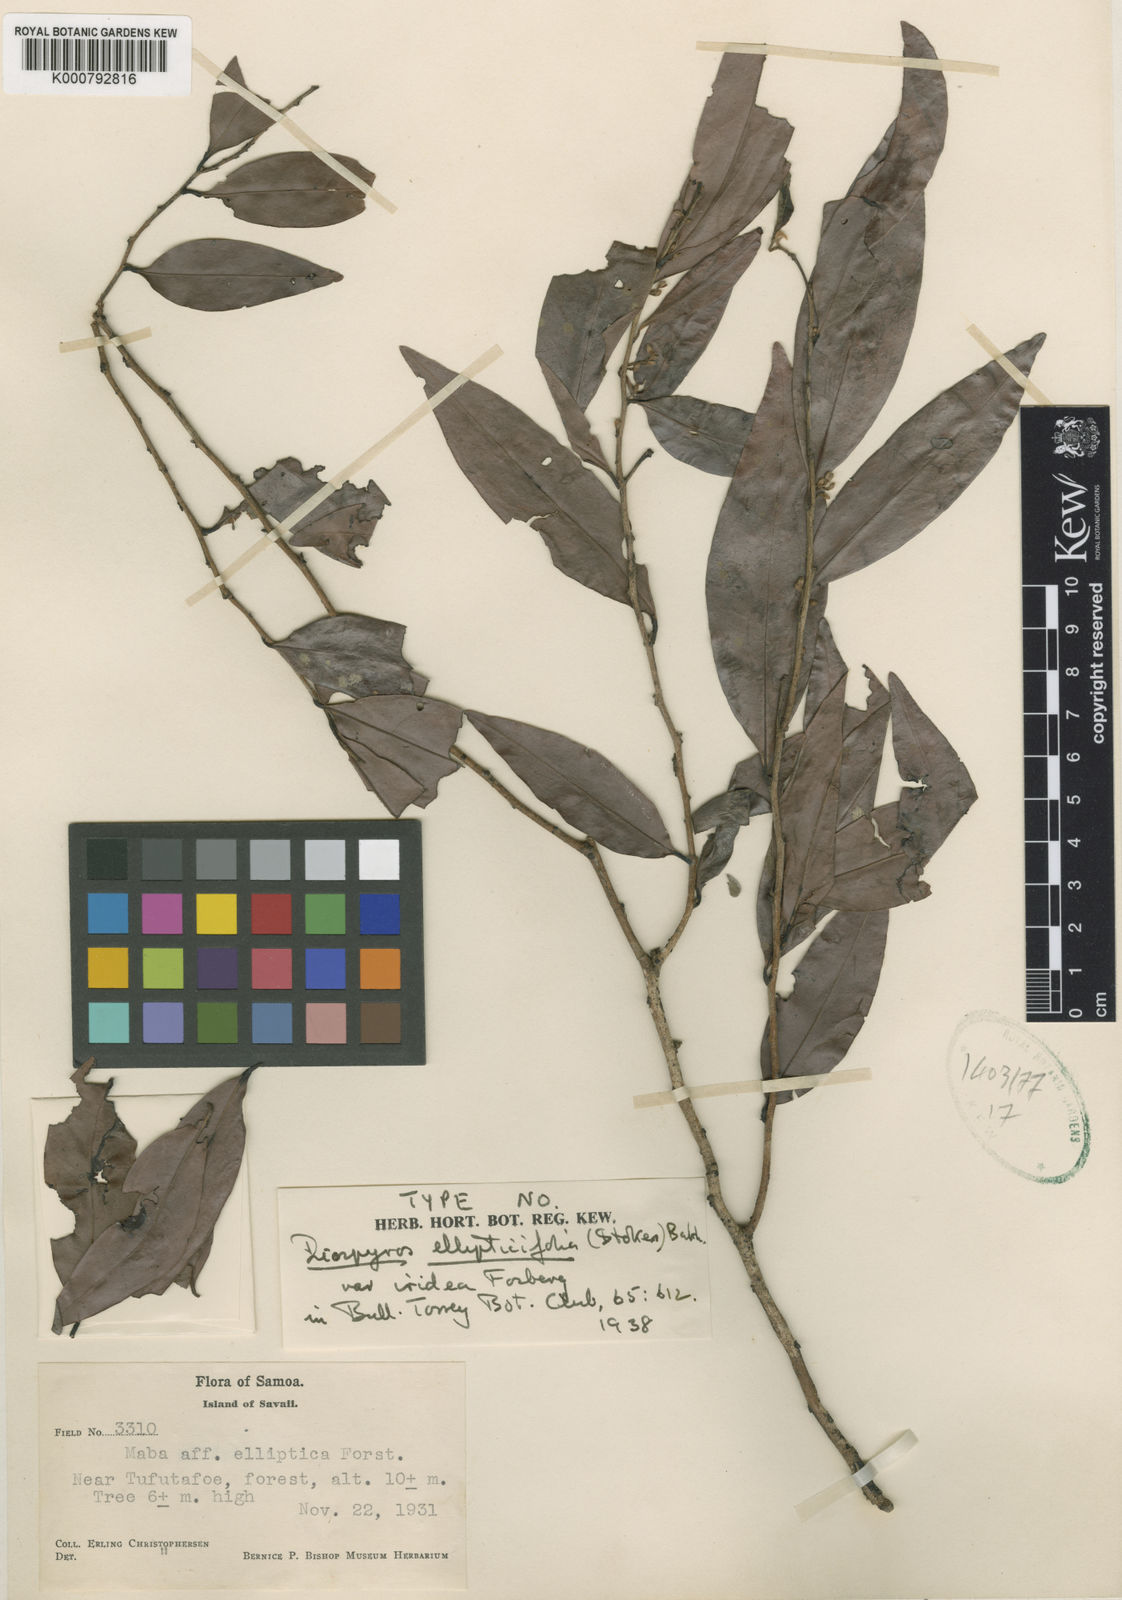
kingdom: Plantae
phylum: Tracheophyta
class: Magnoliopsida
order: Ericales
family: Ebenaceae
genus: Diospyros
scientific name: Diospyros foliosa
